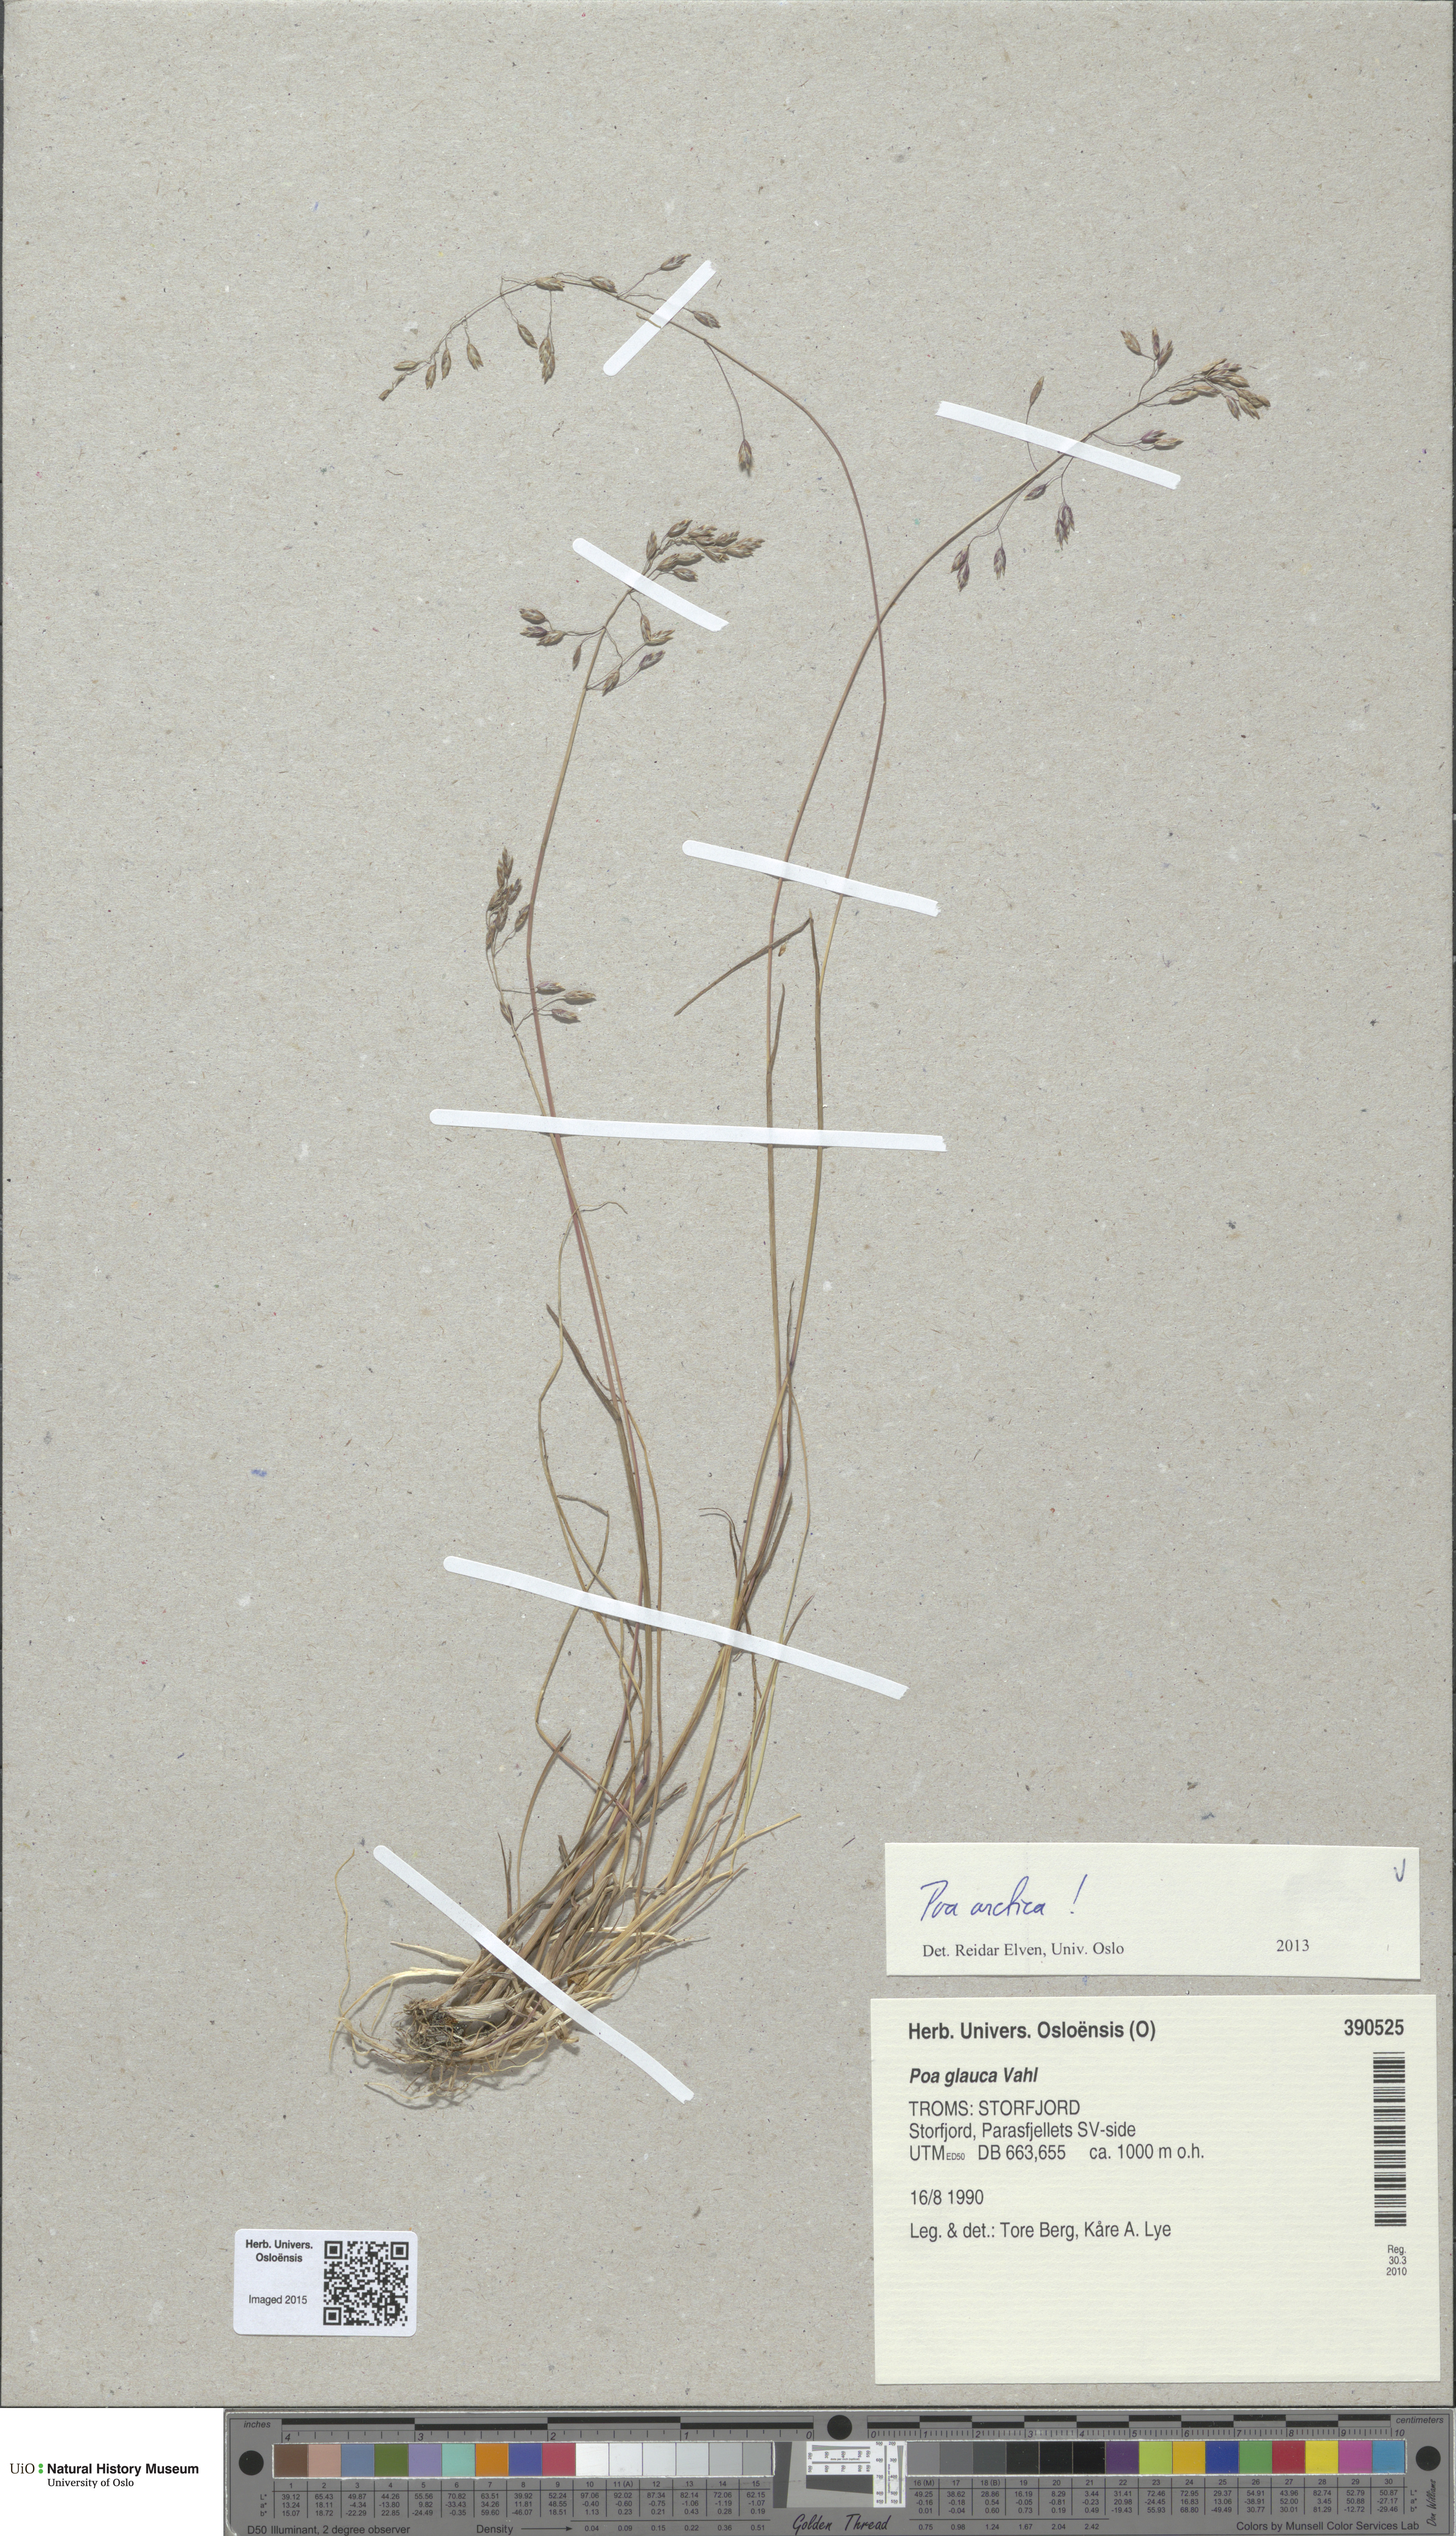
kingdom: Plantae
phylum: Tracheophyta
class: Liliopsida
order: Poales
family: Poaceae
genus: Poa
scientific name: Poa arctica
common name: Arctic bluegrass
